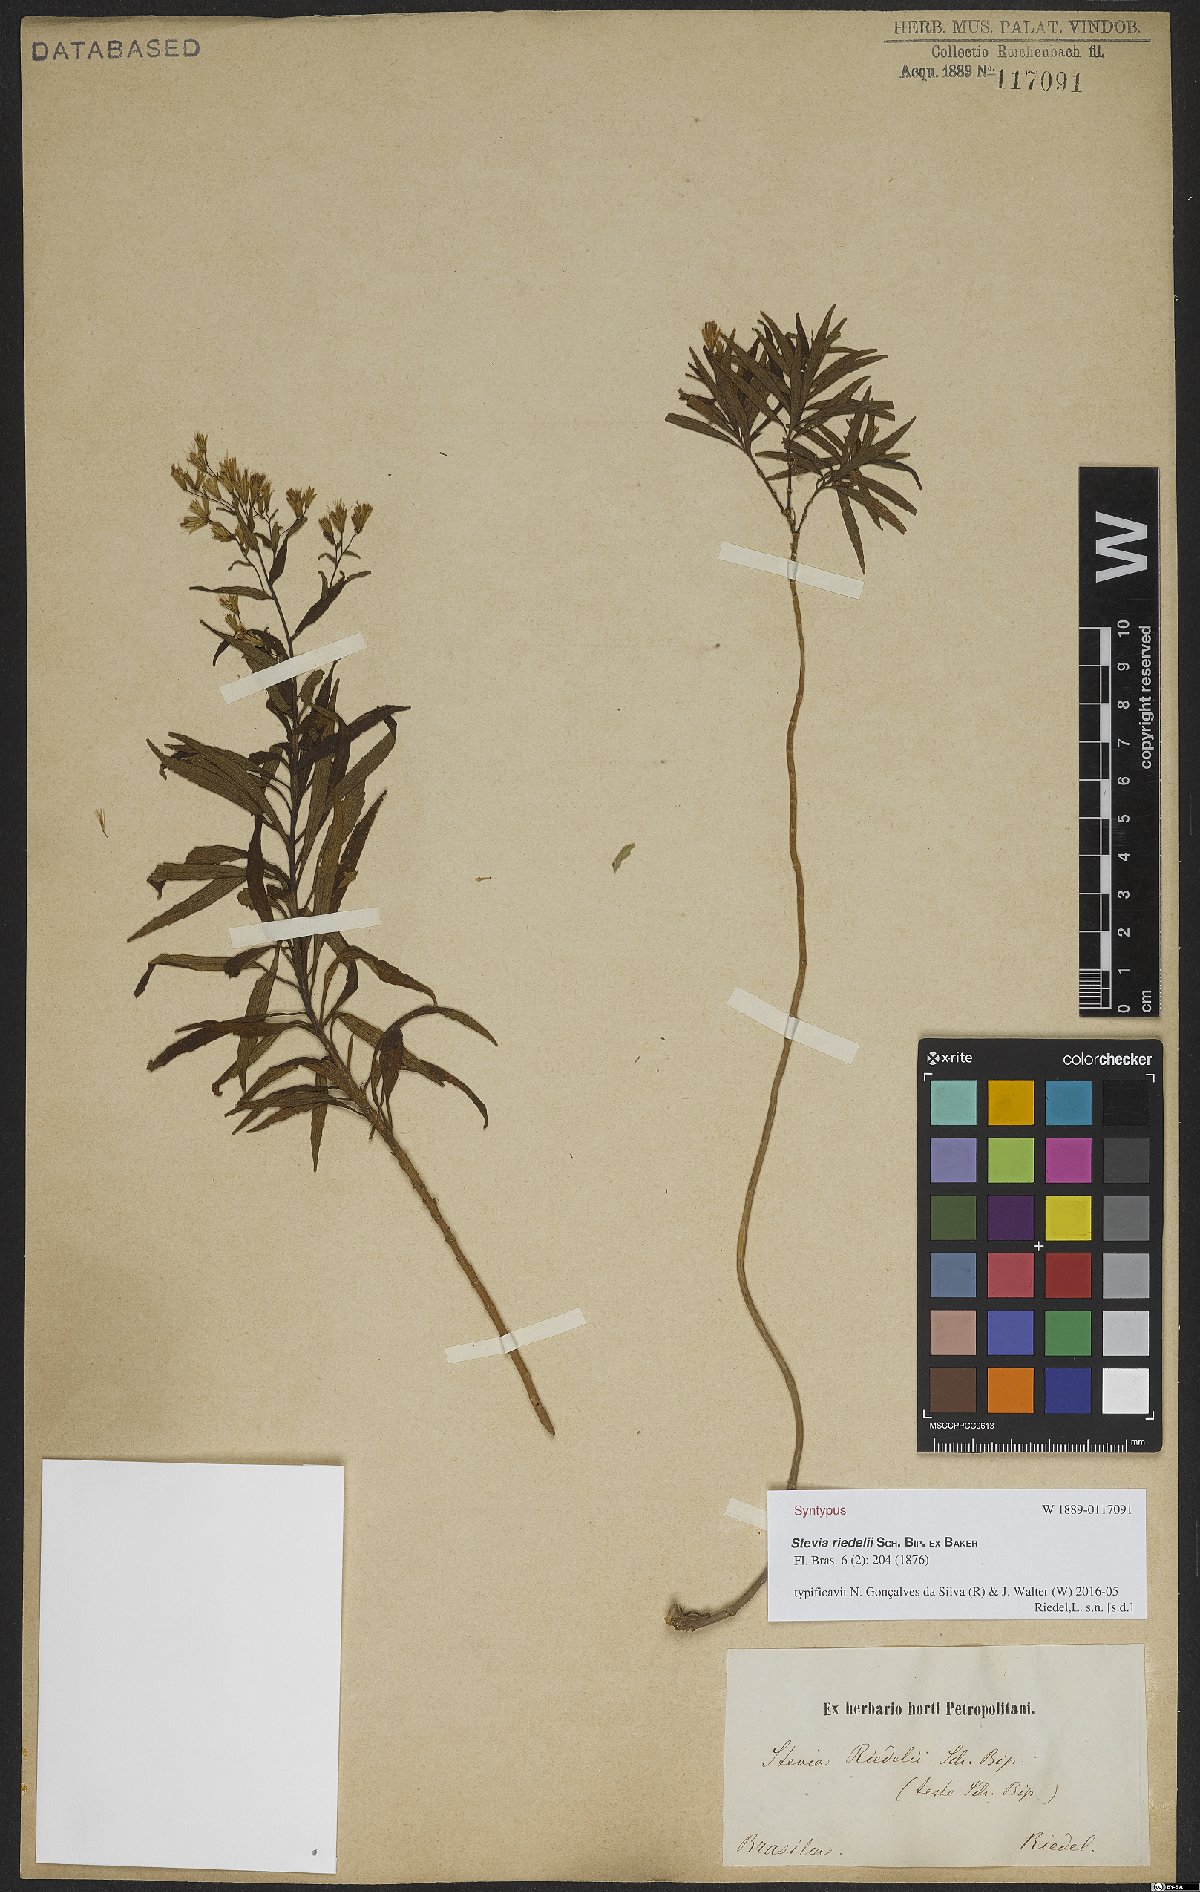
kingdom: Plantae
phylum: Tracheophyta
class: Magnoliopsida
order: Asterales
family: Asteraceae
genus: Stevia
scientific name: Stevia riedelii
